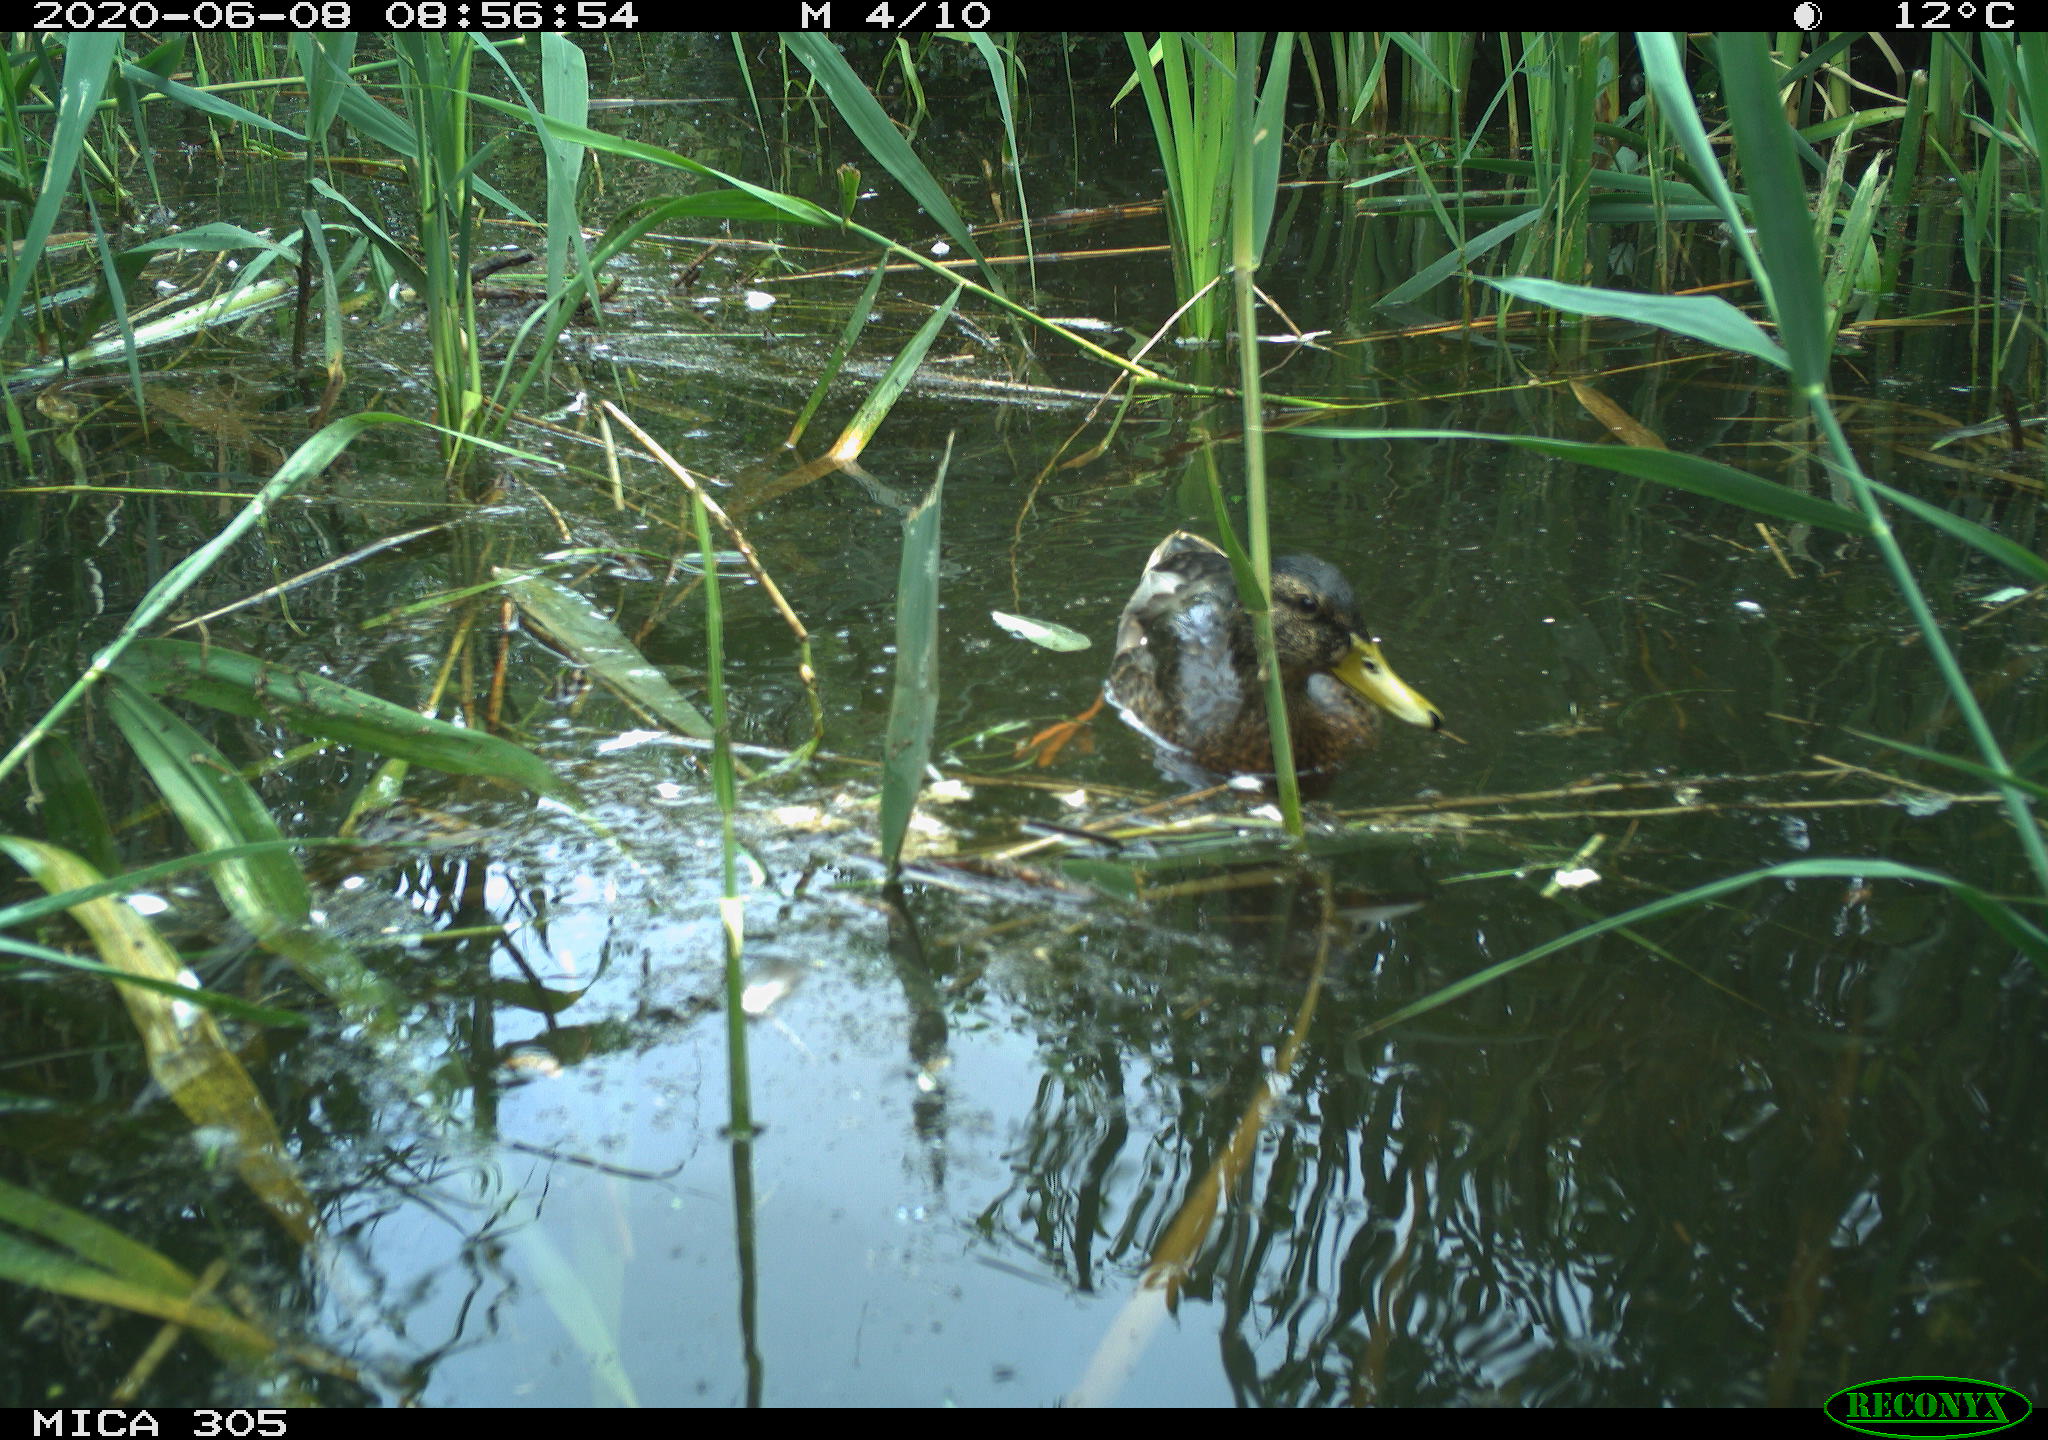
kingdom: Animalia
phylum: Chordata
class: Aves
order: Anseriformes
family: Anatidae
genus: Anas
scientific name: Anas platyrhynchos
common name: Mallard
